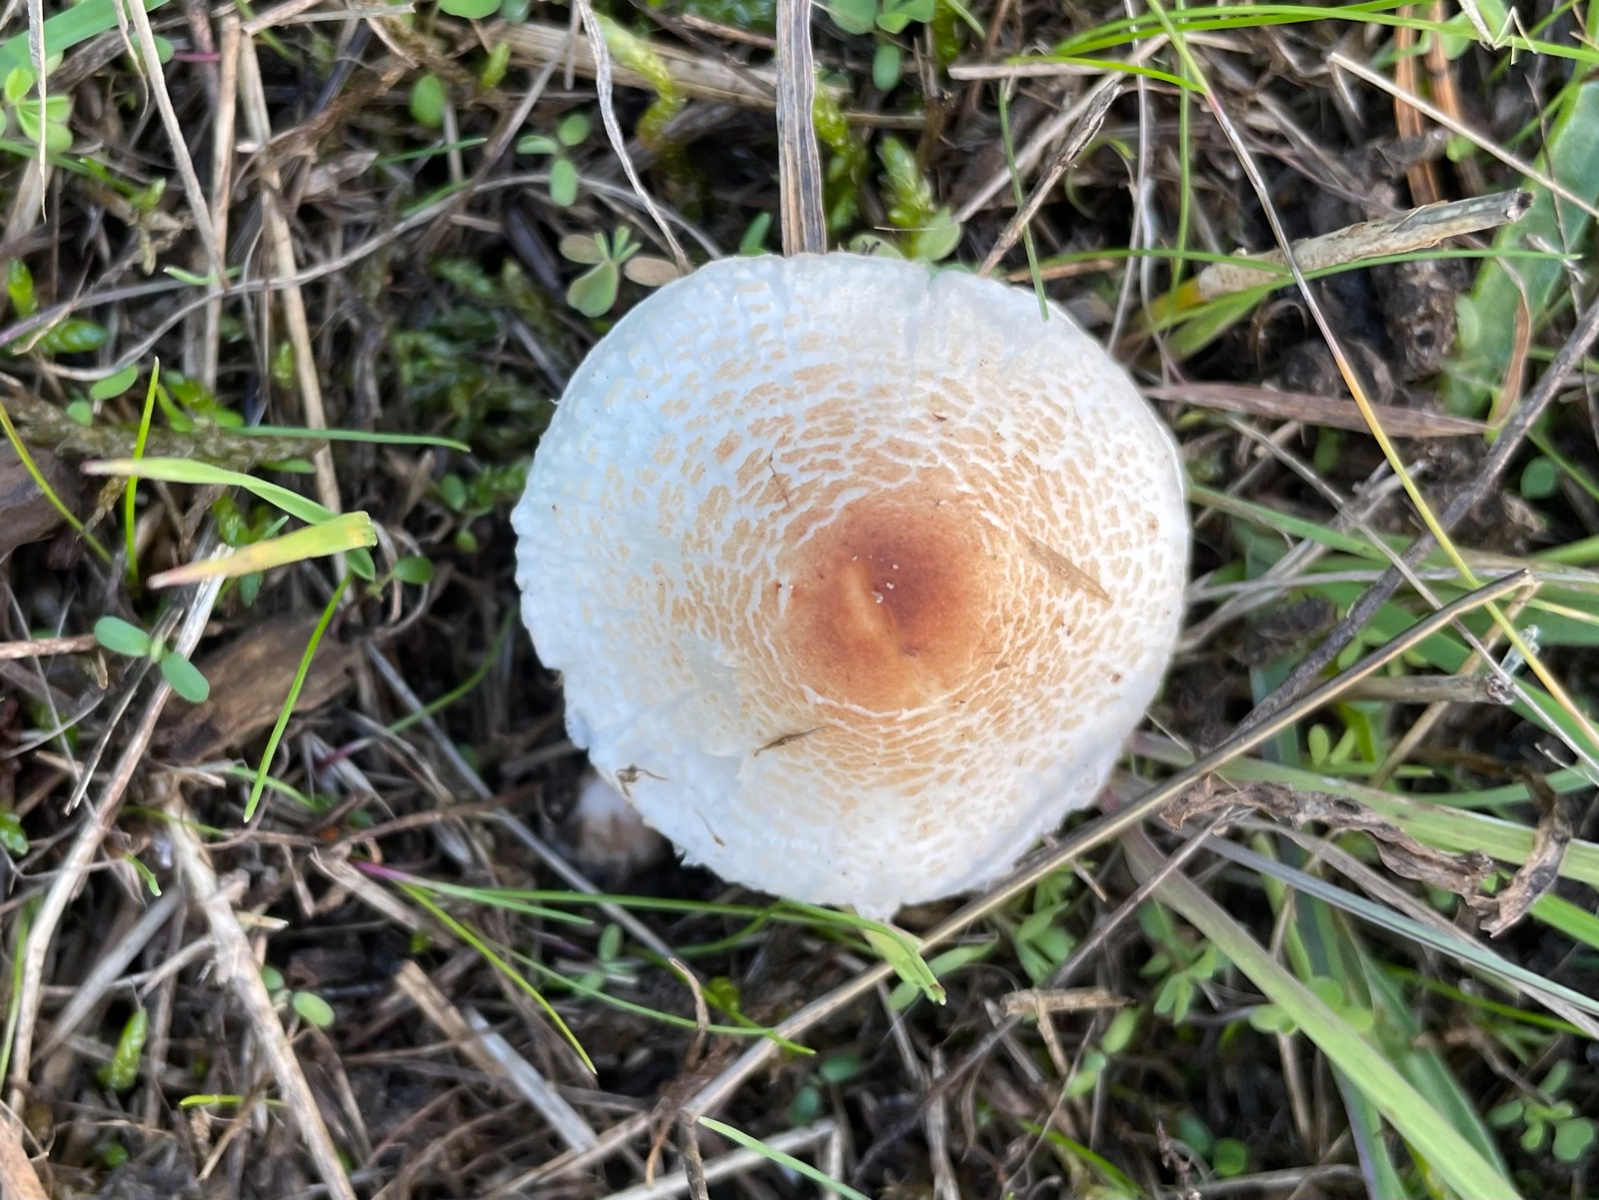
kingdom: Fungi
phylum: Basidiomycota
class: Agaricomycetes
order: Agaricales
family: Agaricaceae
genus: Lepiota
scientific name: Lepiota cristata
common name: stinkende parasolhat
